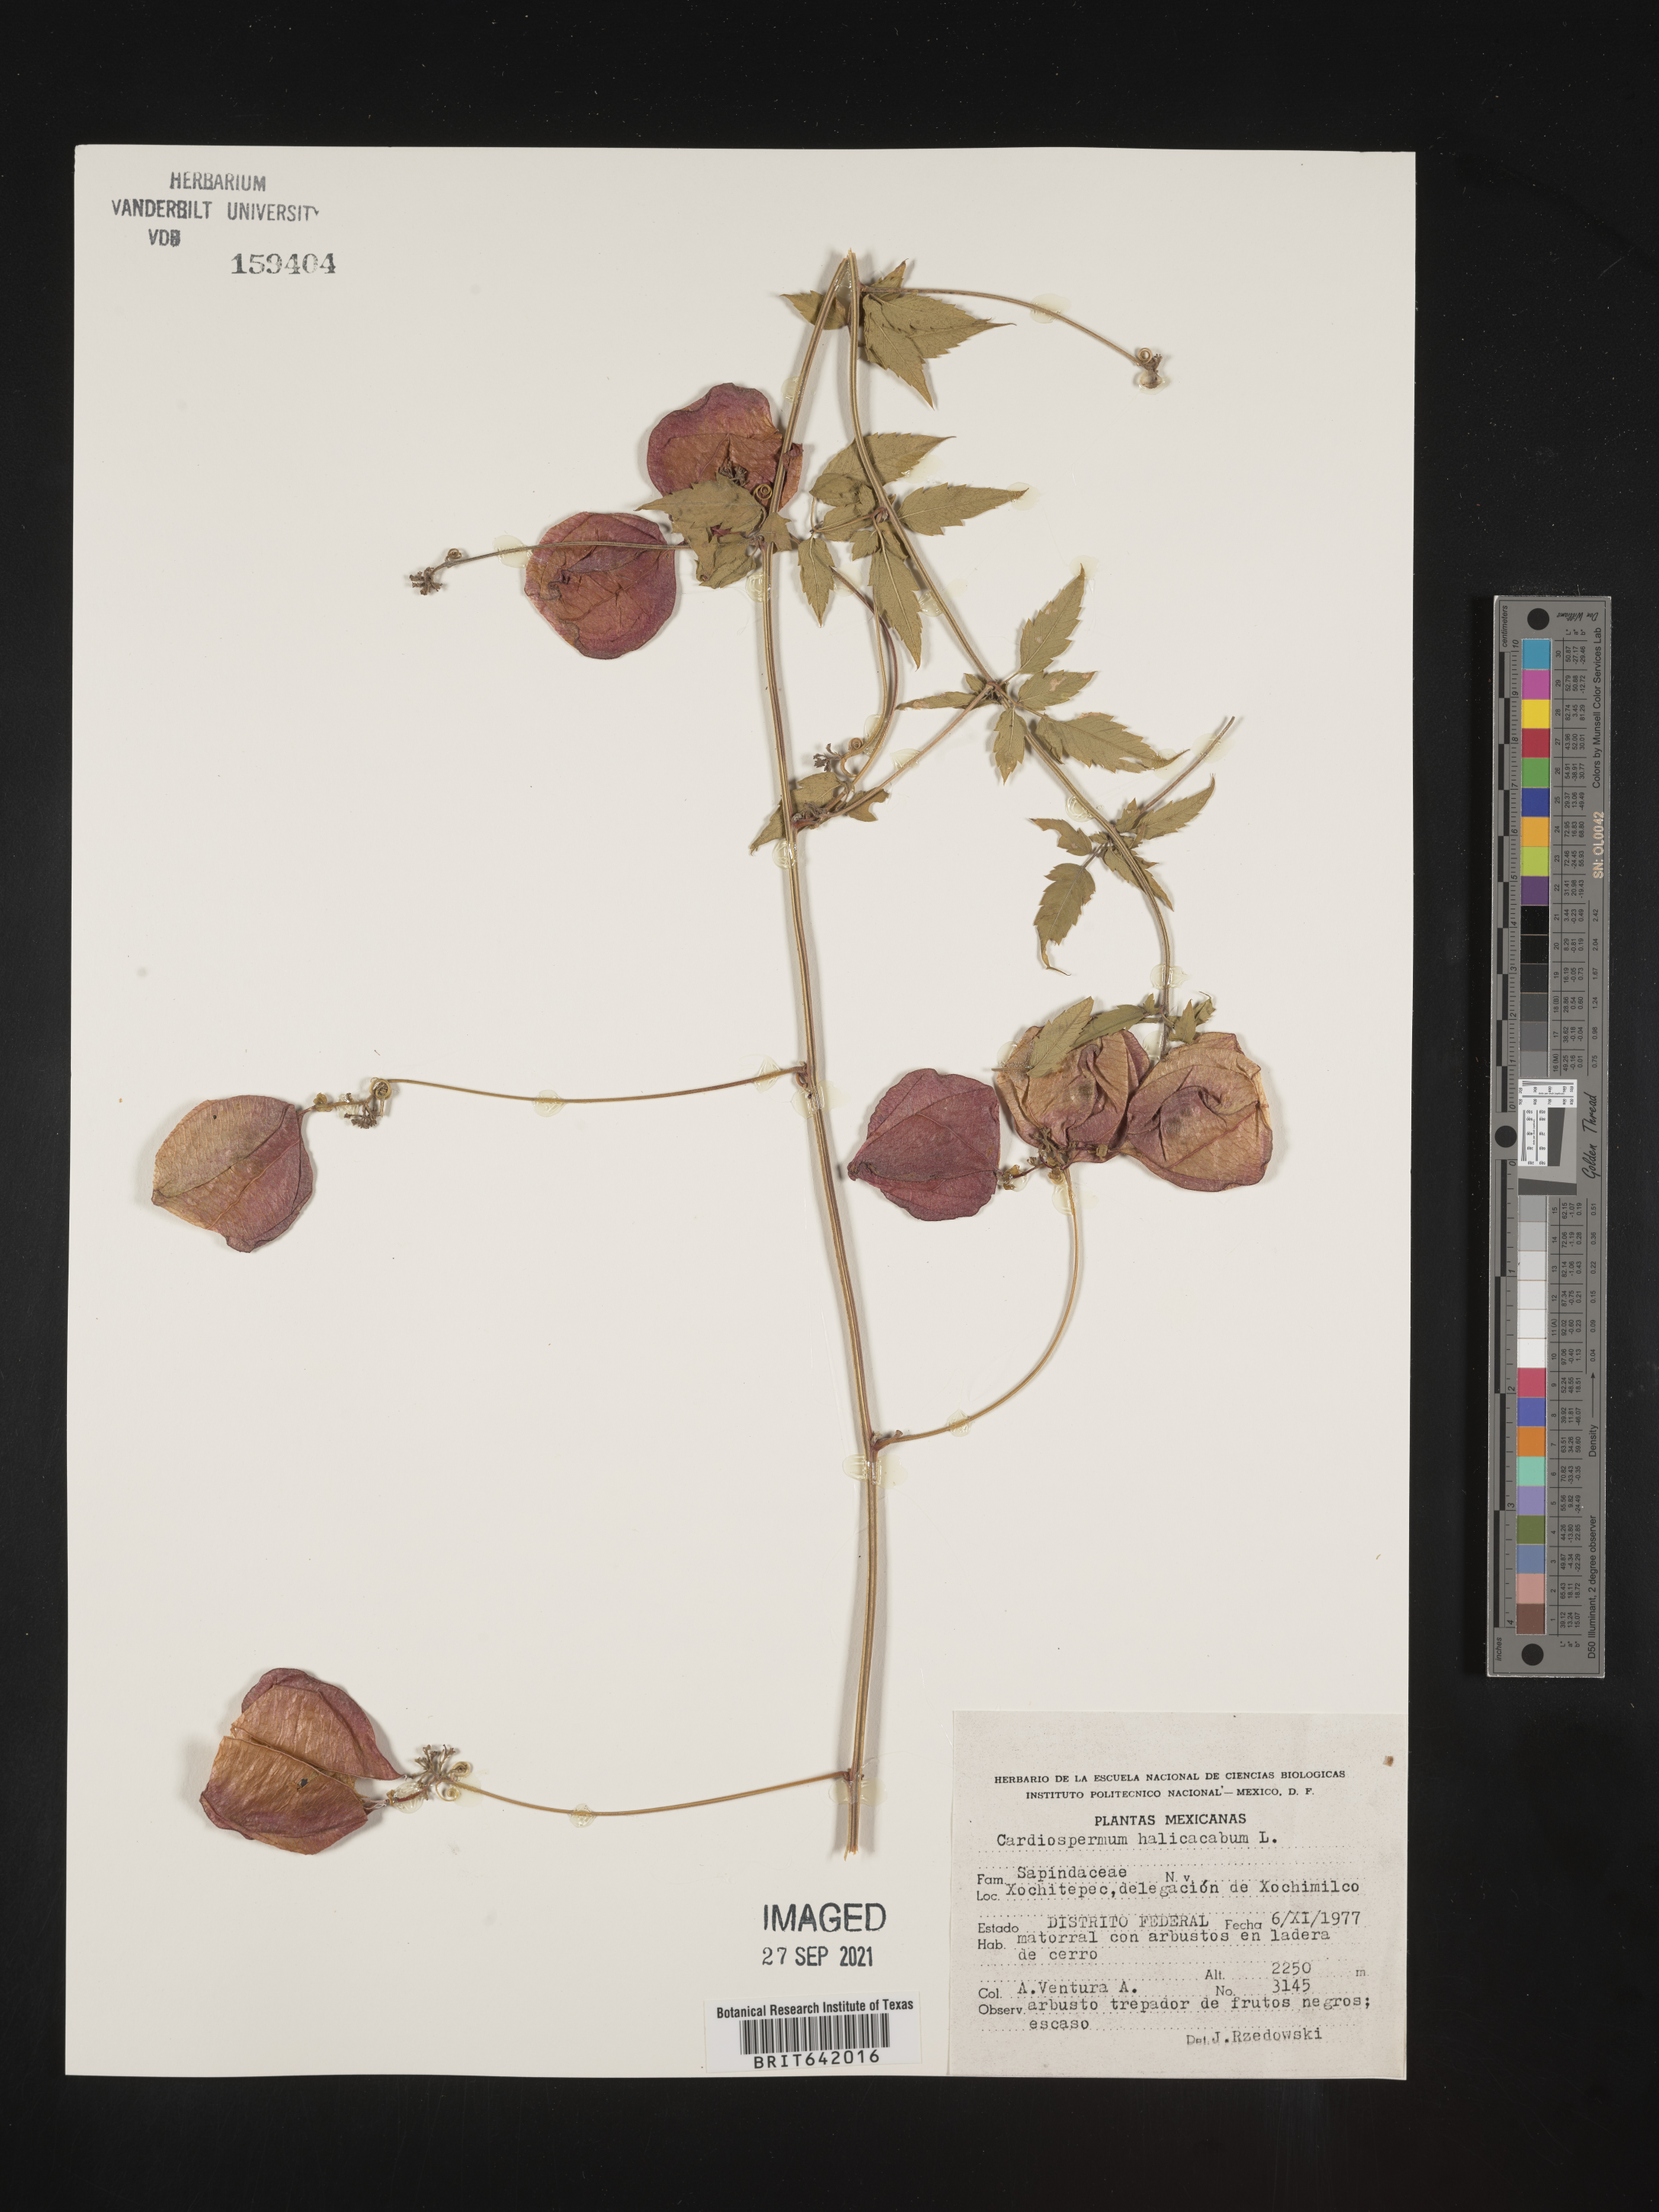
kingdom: Plantae
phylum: Tracheophyta
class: Magnoliopsida
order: Sapindales
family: Sapindaceae
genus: Cardiospermum
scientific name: Cardiospermum
